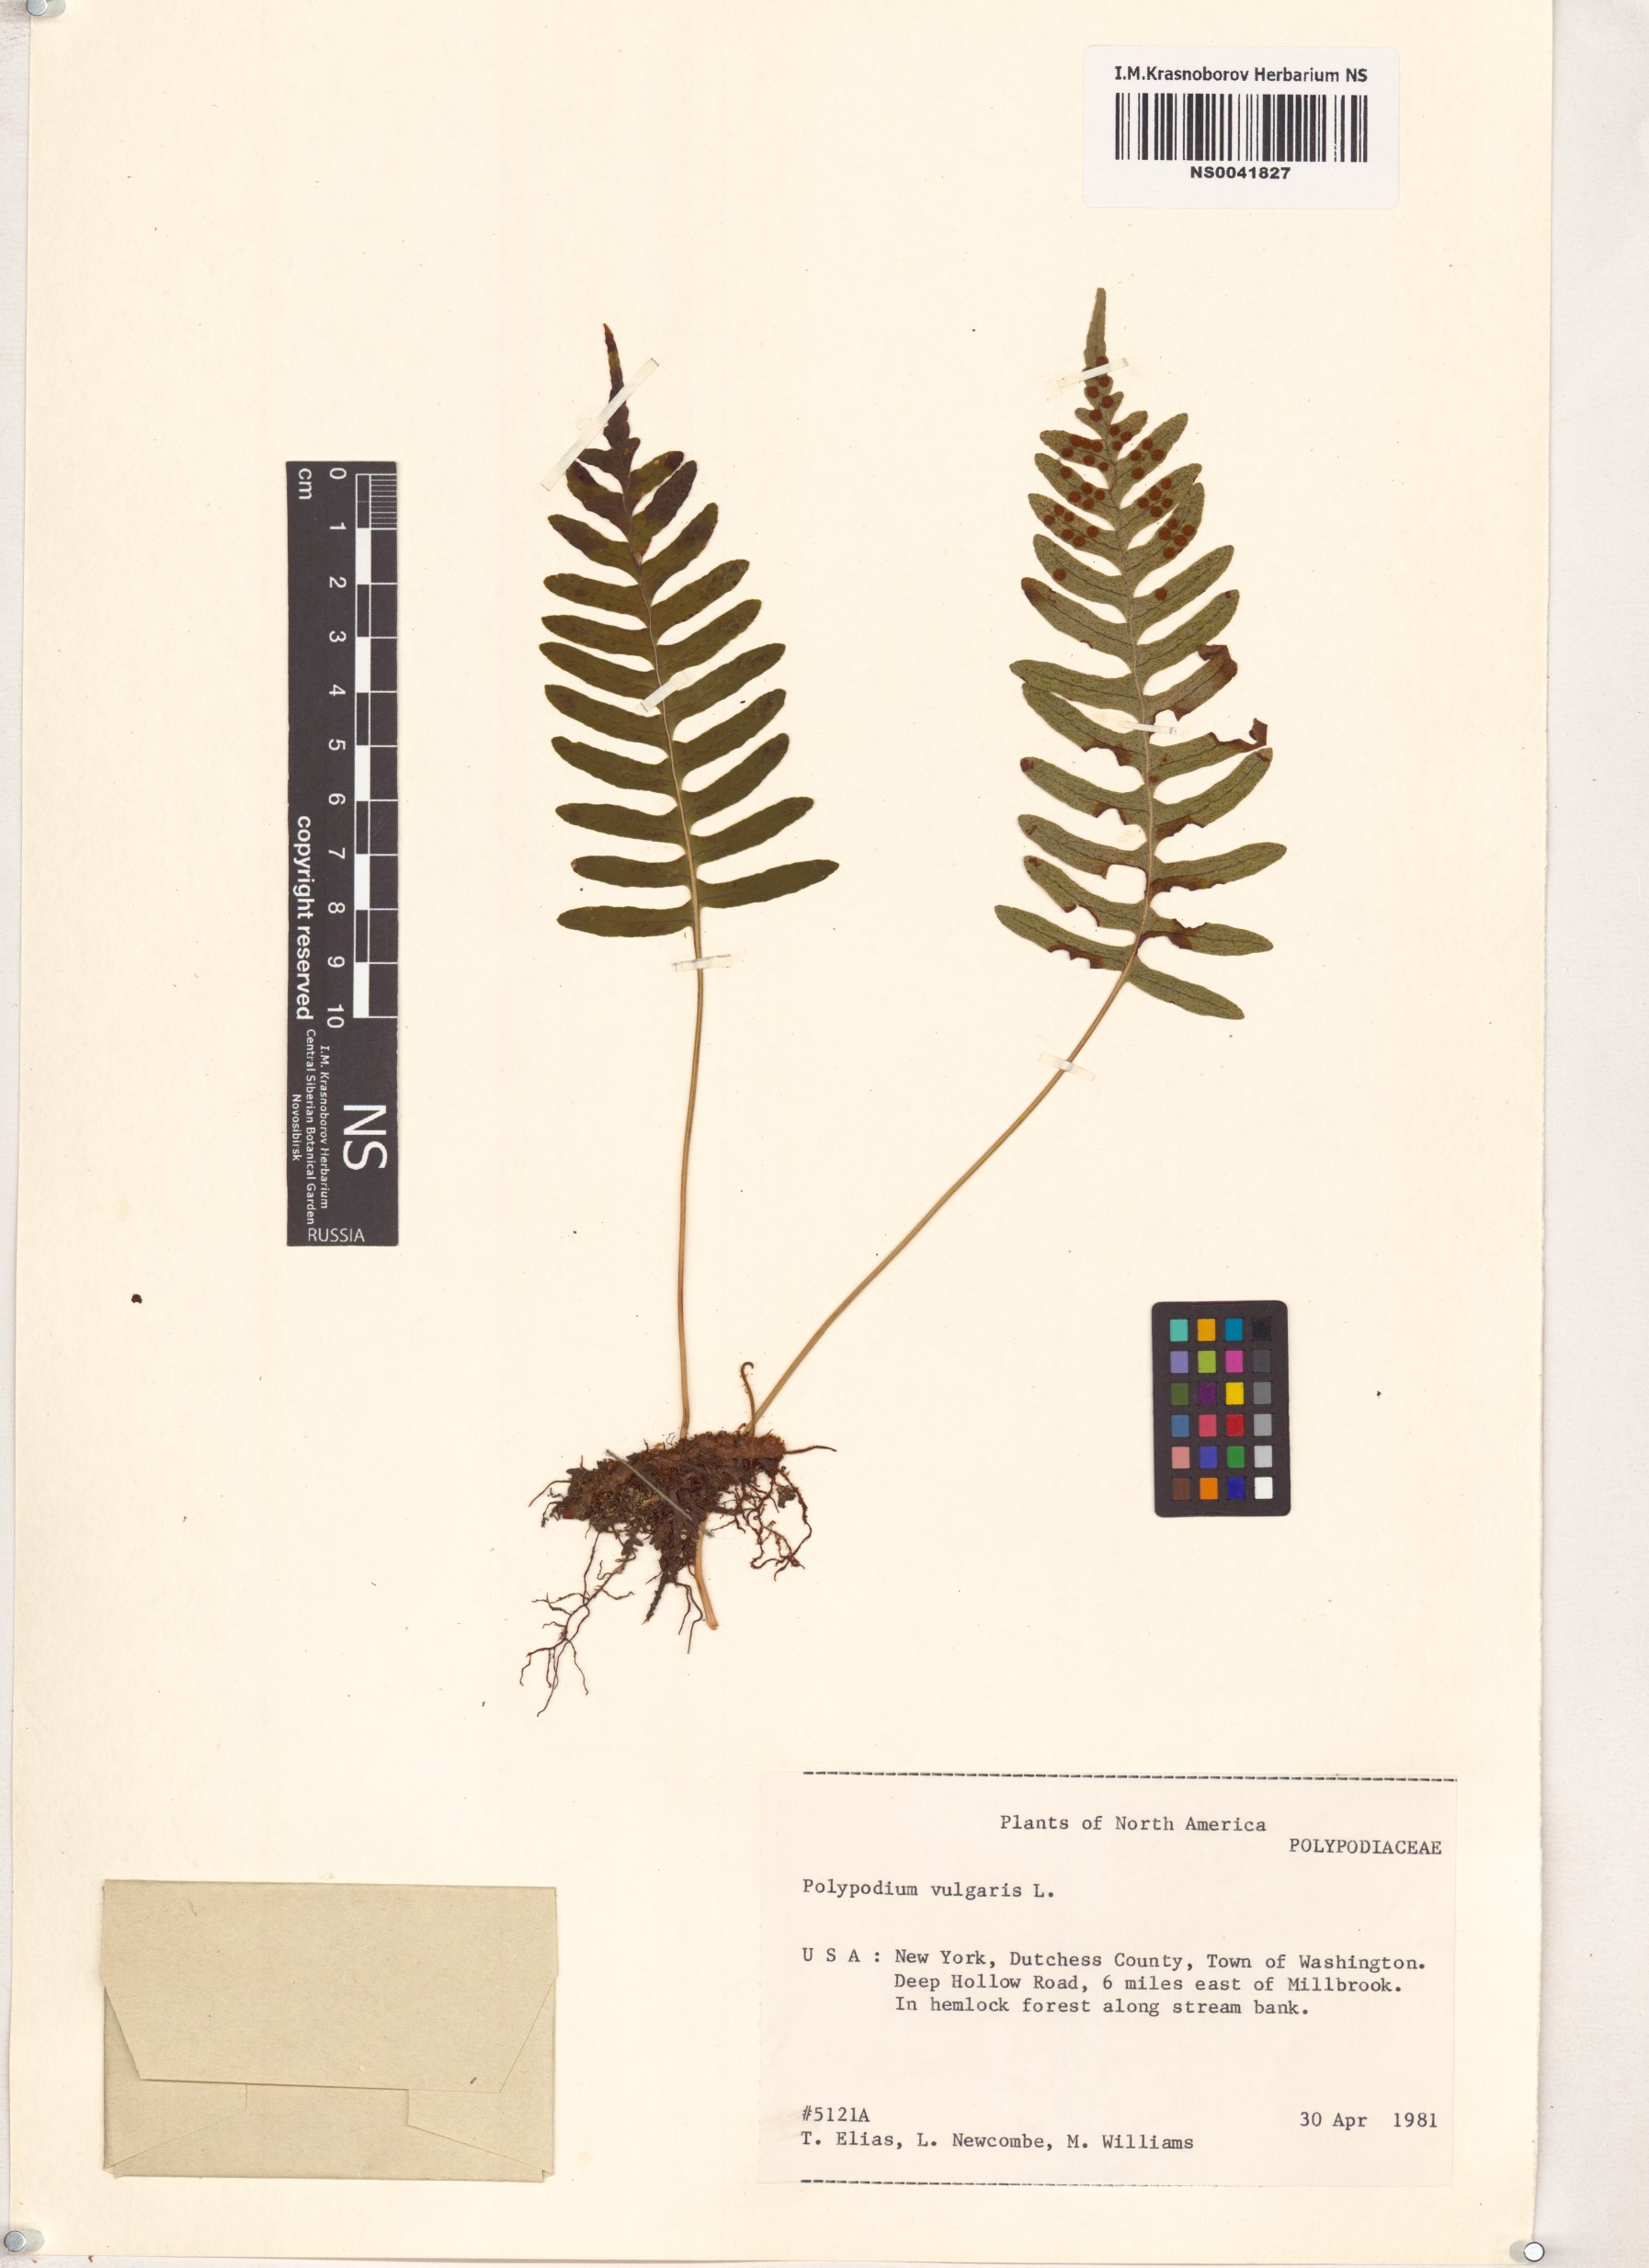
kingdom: Plantae
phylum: Tracheophyta
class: Polypodiopsida
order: Polypodiales
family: Polypodiaceae
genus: Polypodium
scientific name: Polypodium vulgare
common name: Common polypody
